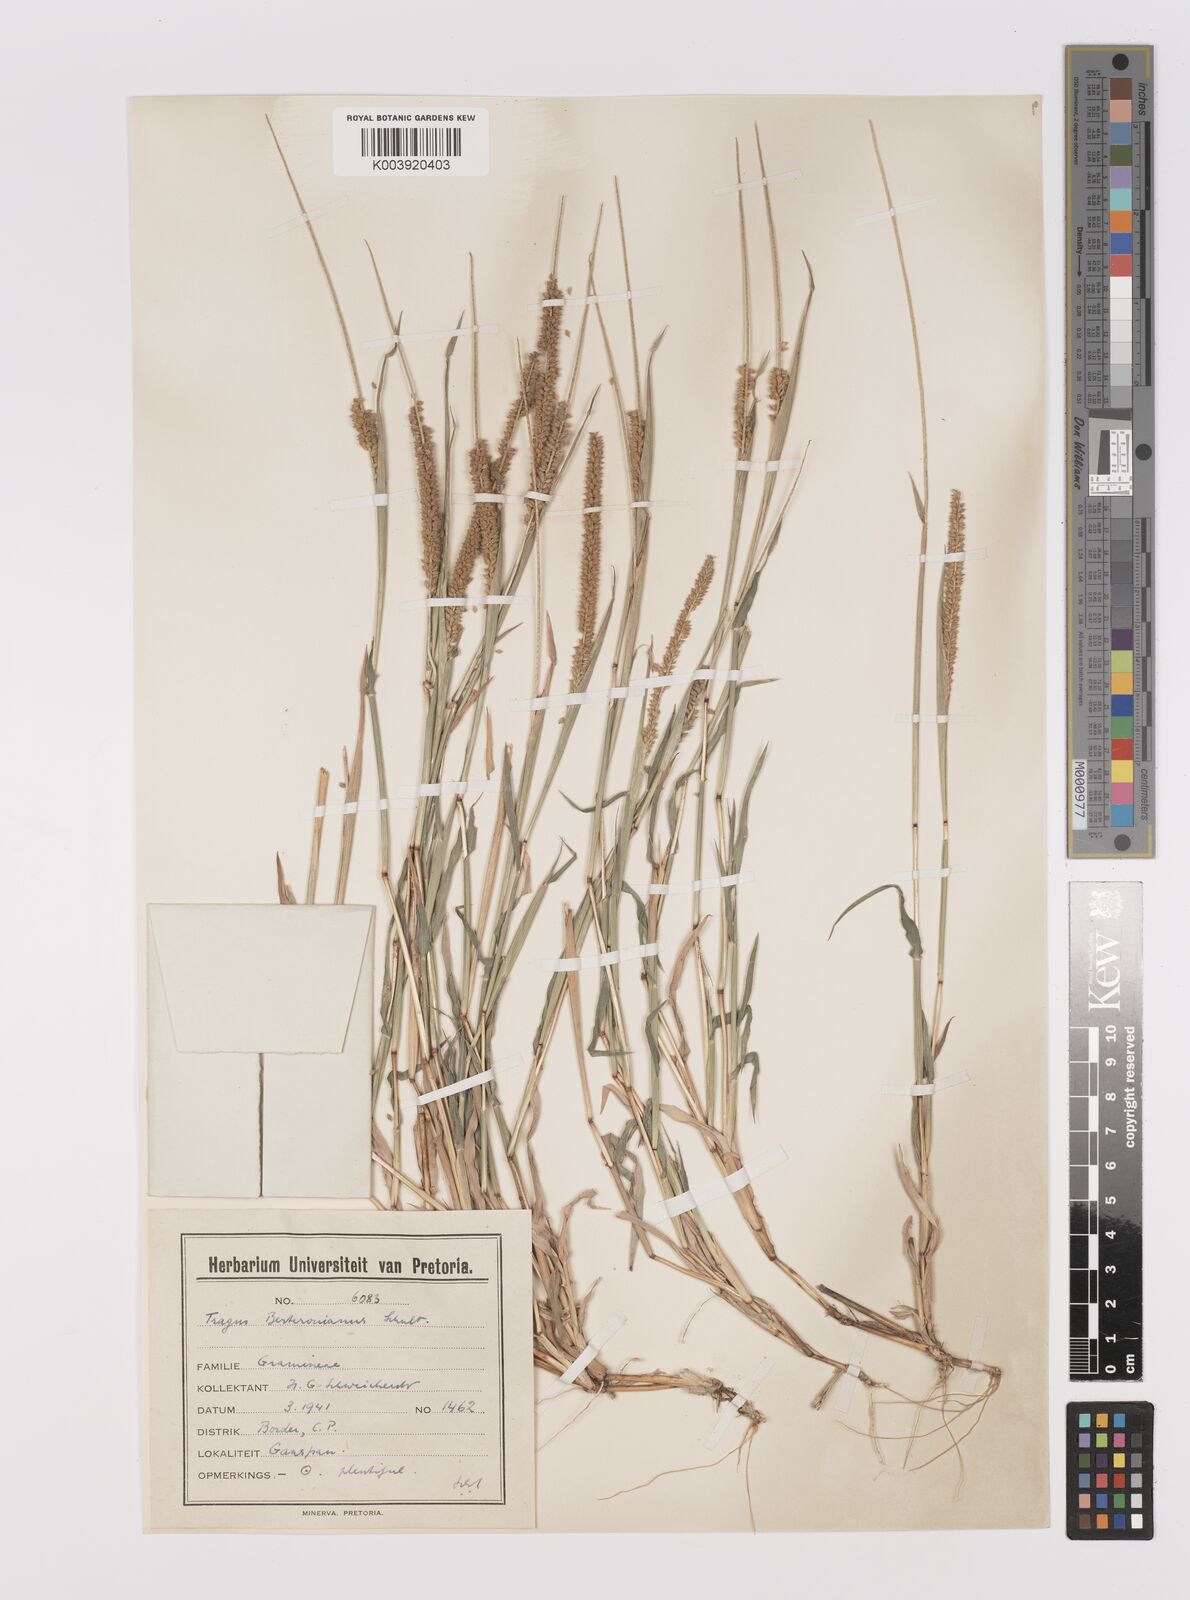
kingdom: Plantae
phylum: Tracheophyta
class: Liliopsida
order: Poales
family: Poaceae
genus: Tragus
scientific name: Tragus berteronianus
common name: African bur-grass
